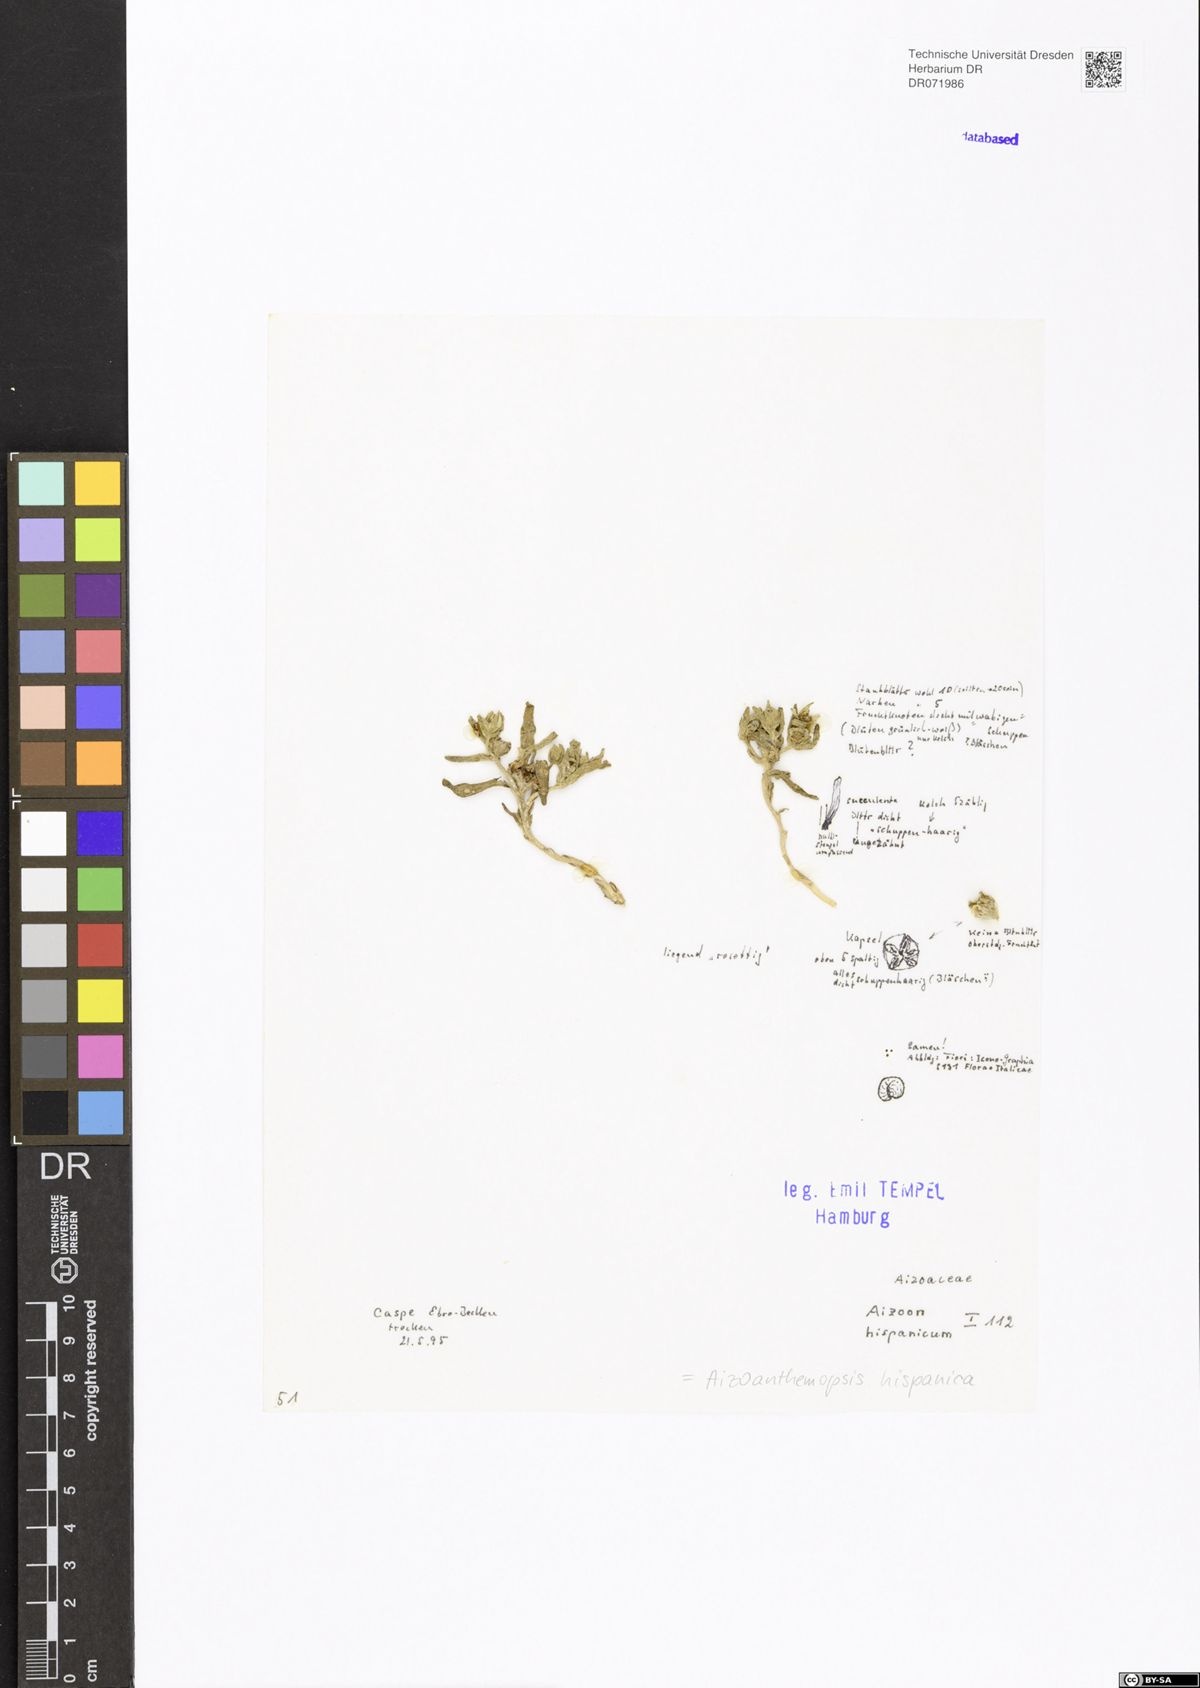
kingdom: Plantae
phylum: Tracheophyta
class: Magnoliopsida
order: Caryophyllales
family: Aizoaceae
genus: Aizoanthemopsis
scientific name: Aizoanthemopsis hispanica
